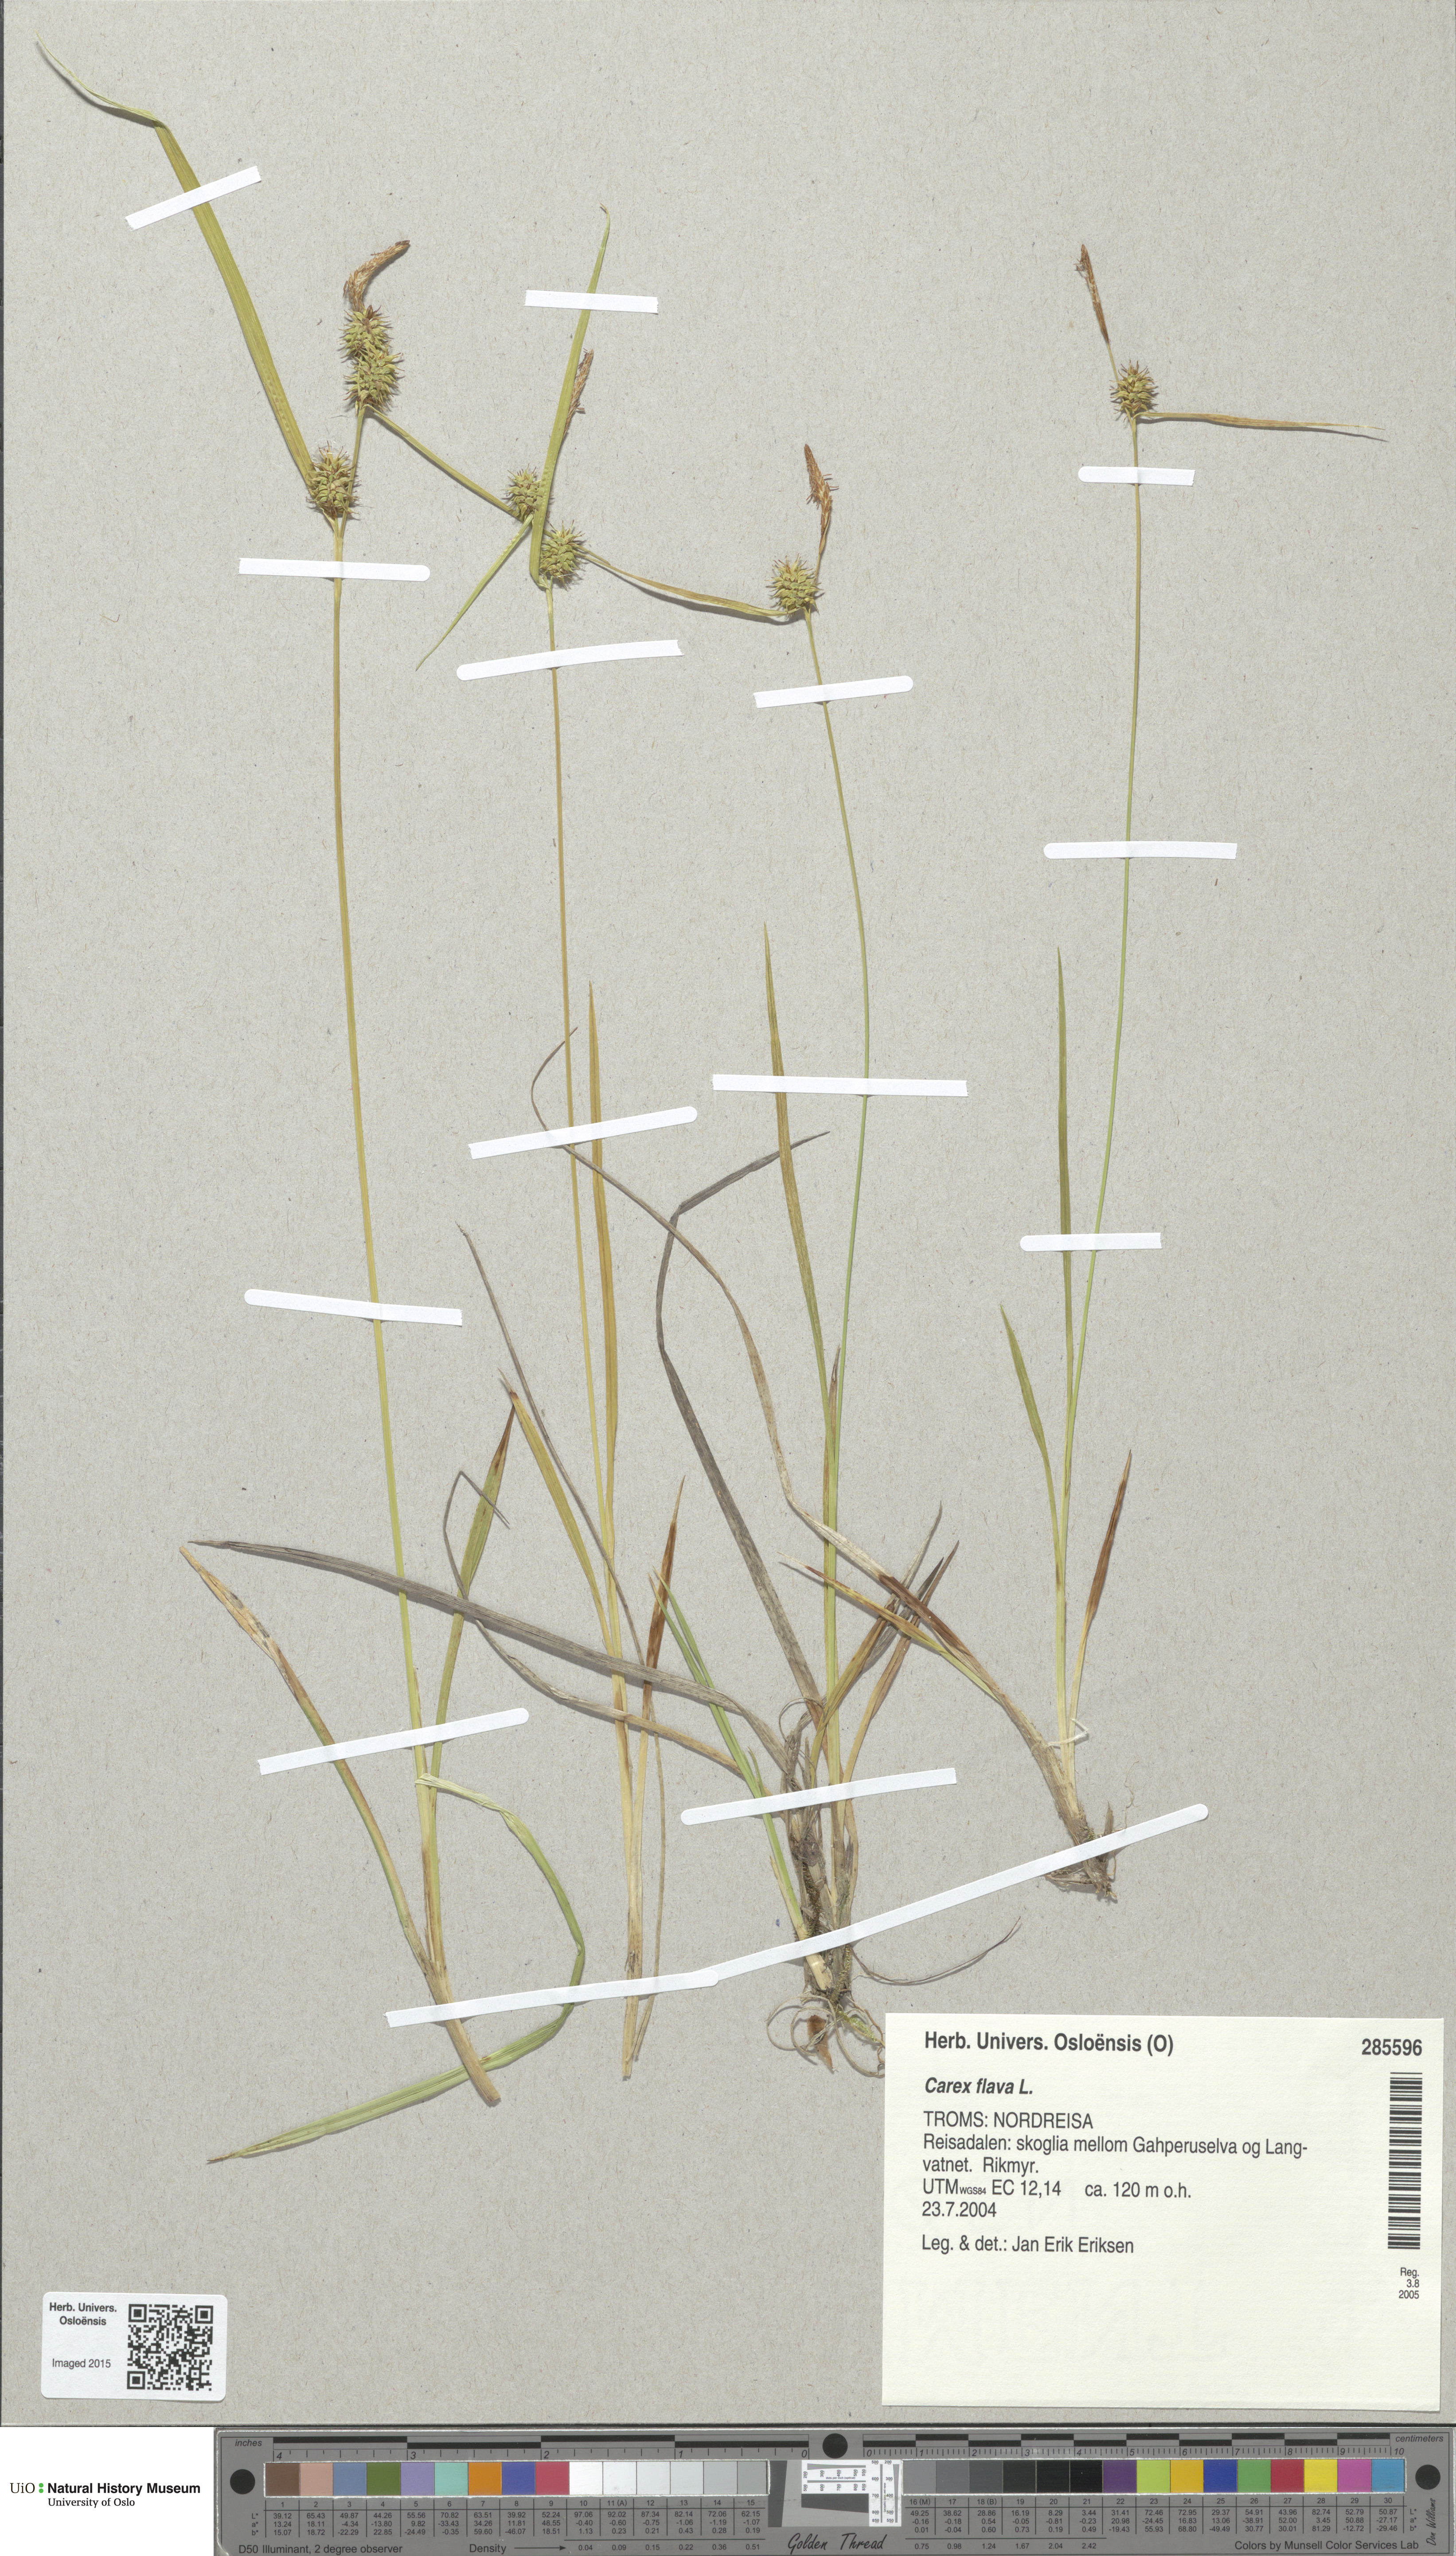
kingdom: Plantae
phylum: Tracheophyta
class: Liliopsida
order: Poales
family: Cyperaceae
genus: Carex
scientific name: Carex flava
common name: Large yellow-sedge
